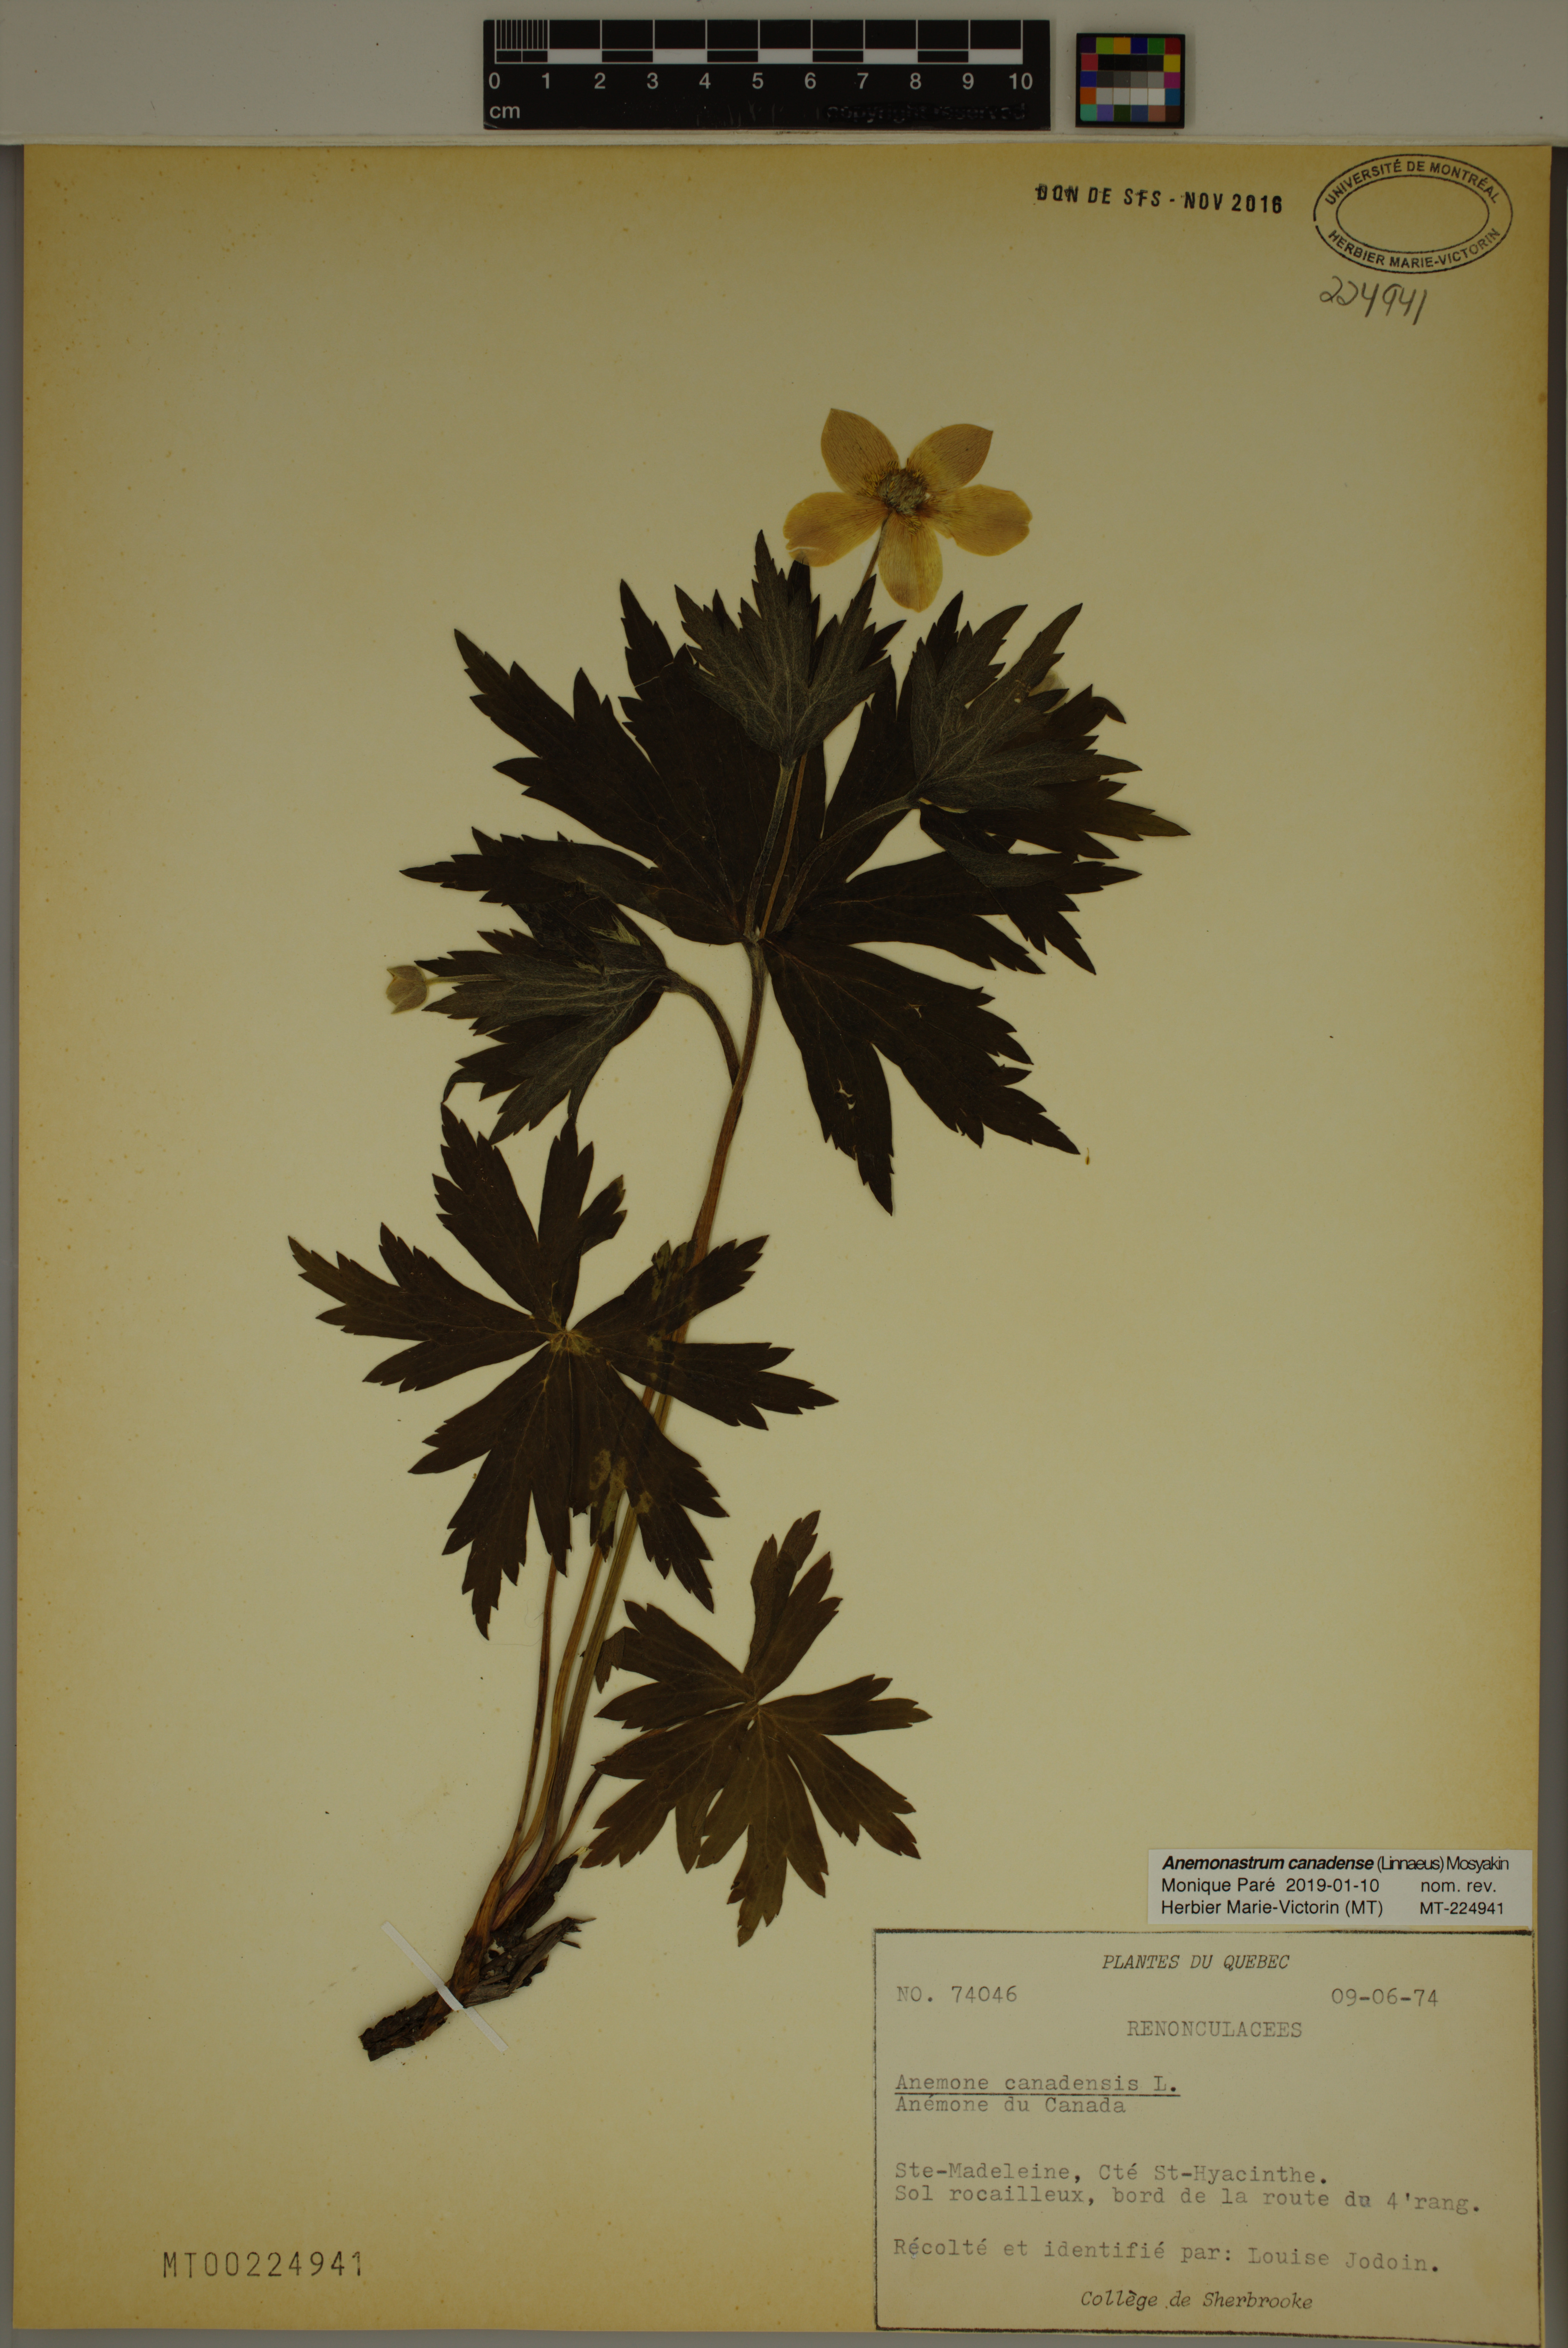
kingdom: Plantae
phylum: Tracheophyta
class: Magnoliopsida
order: Ranunculales
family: Ranunculaceae
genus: Anemonastrum
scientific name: Anemonastrum canadense
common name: Canada anemone
